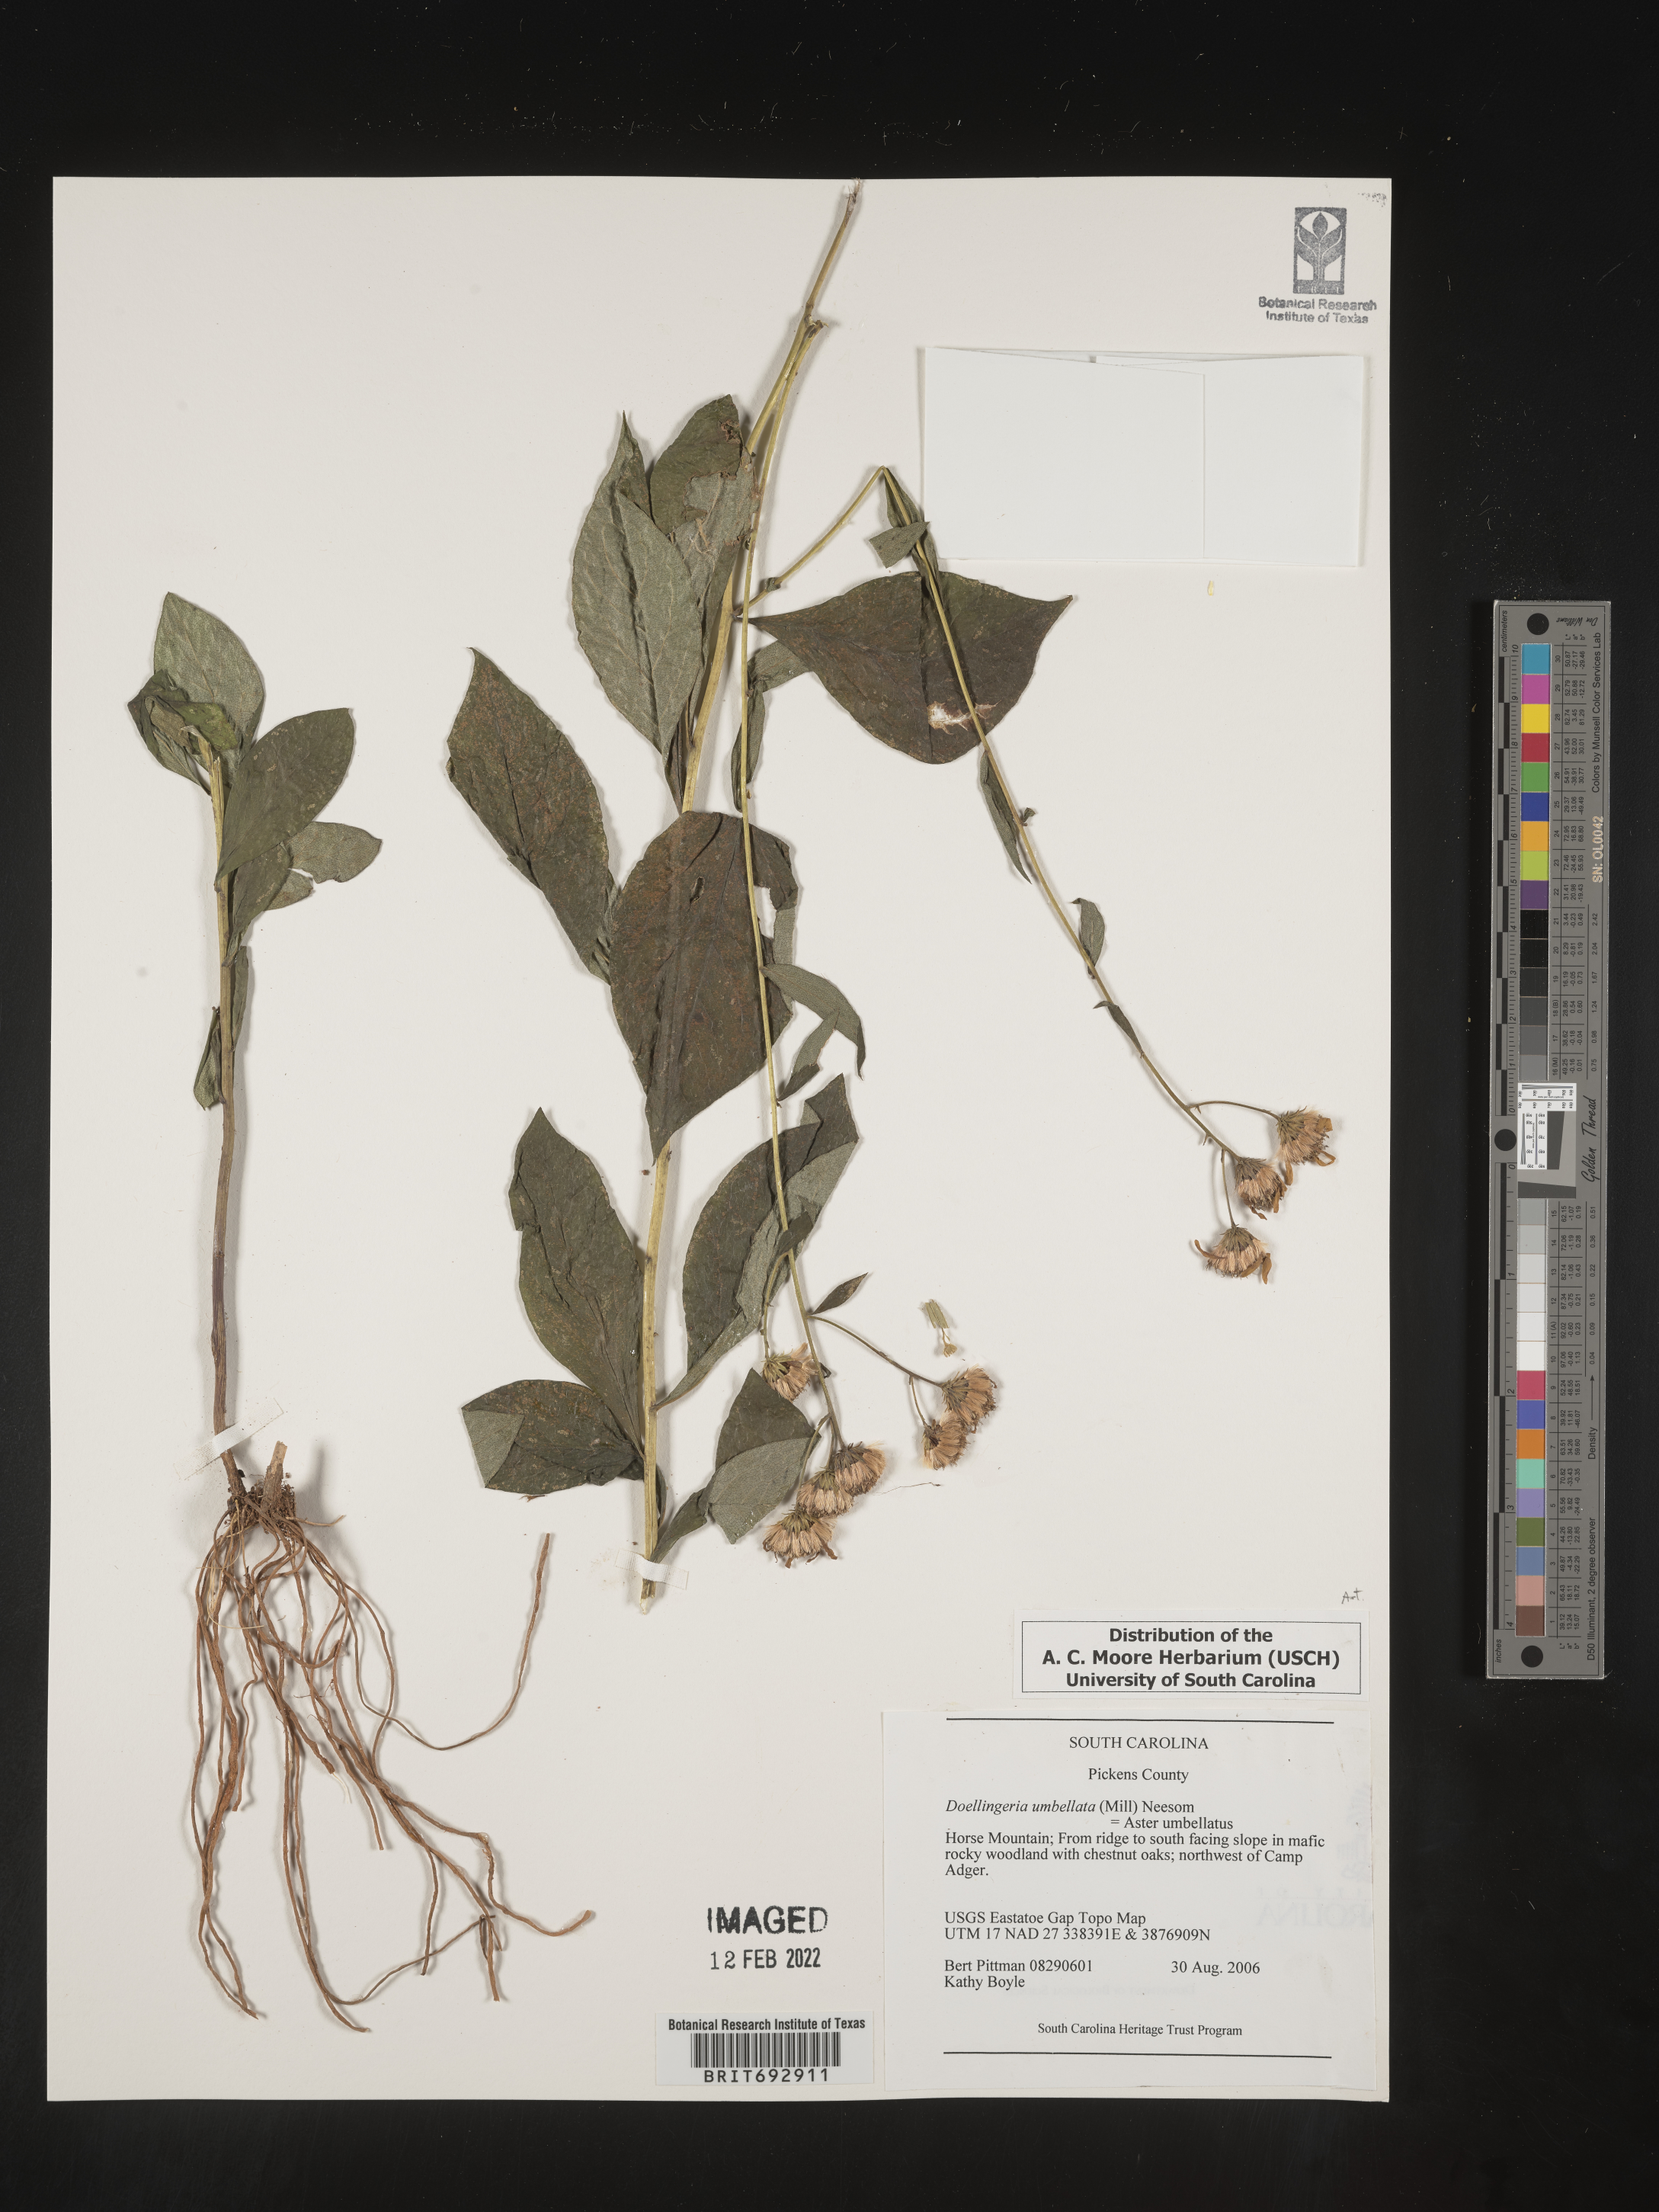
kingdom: Plantae
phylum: Tracheophyta
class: Magnoliopsida
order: Asterales
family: Asteraceae
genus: Doellingeria
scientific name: Doellingeria umbellata
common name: Flat-top white aster
